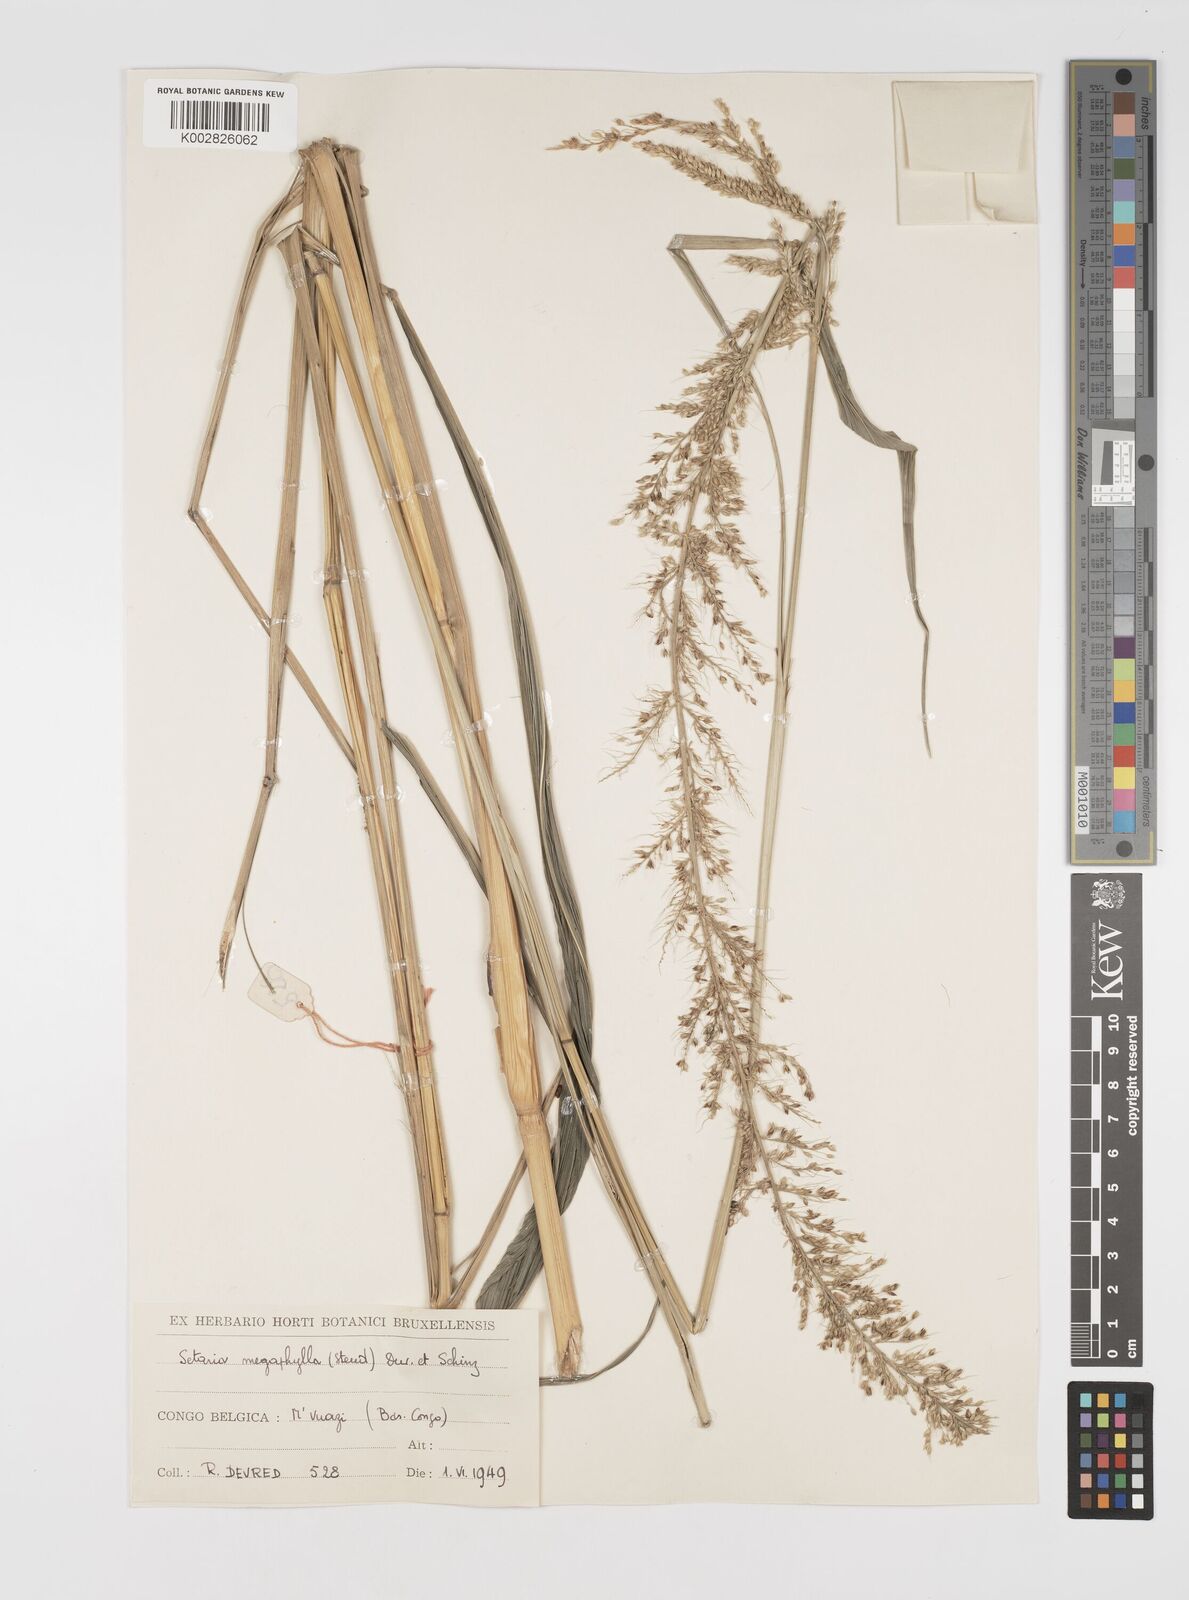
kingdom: Plantae
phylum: Tracheophyta
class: Liliopsida
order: Poales
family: Poaceae
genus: Setaria
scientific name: Setaria megaphylla
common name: Bigleaf bristlegrass
